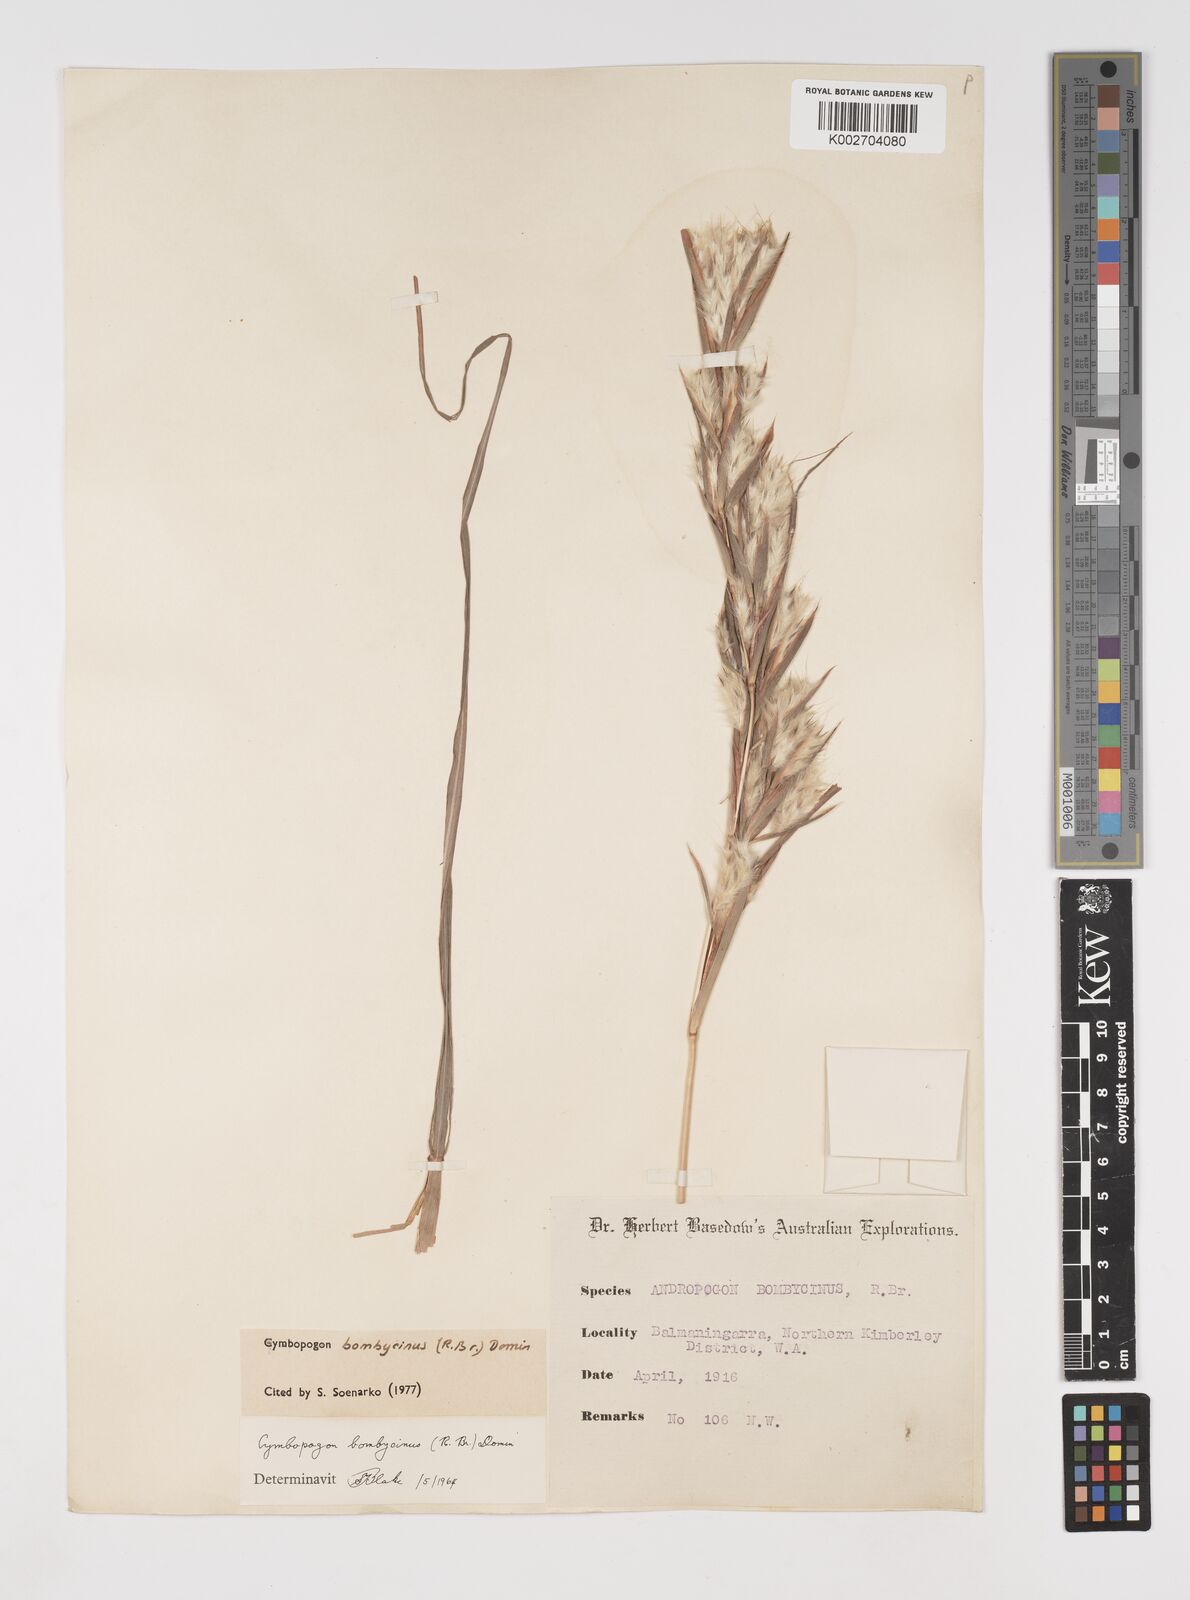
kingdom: Plantae
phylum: Tracheophyta
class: Liliopsida
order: Poales
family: Poaceae
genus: Cymbopogon
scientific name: Cymbopogon bombycinus
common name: Citronella grass
